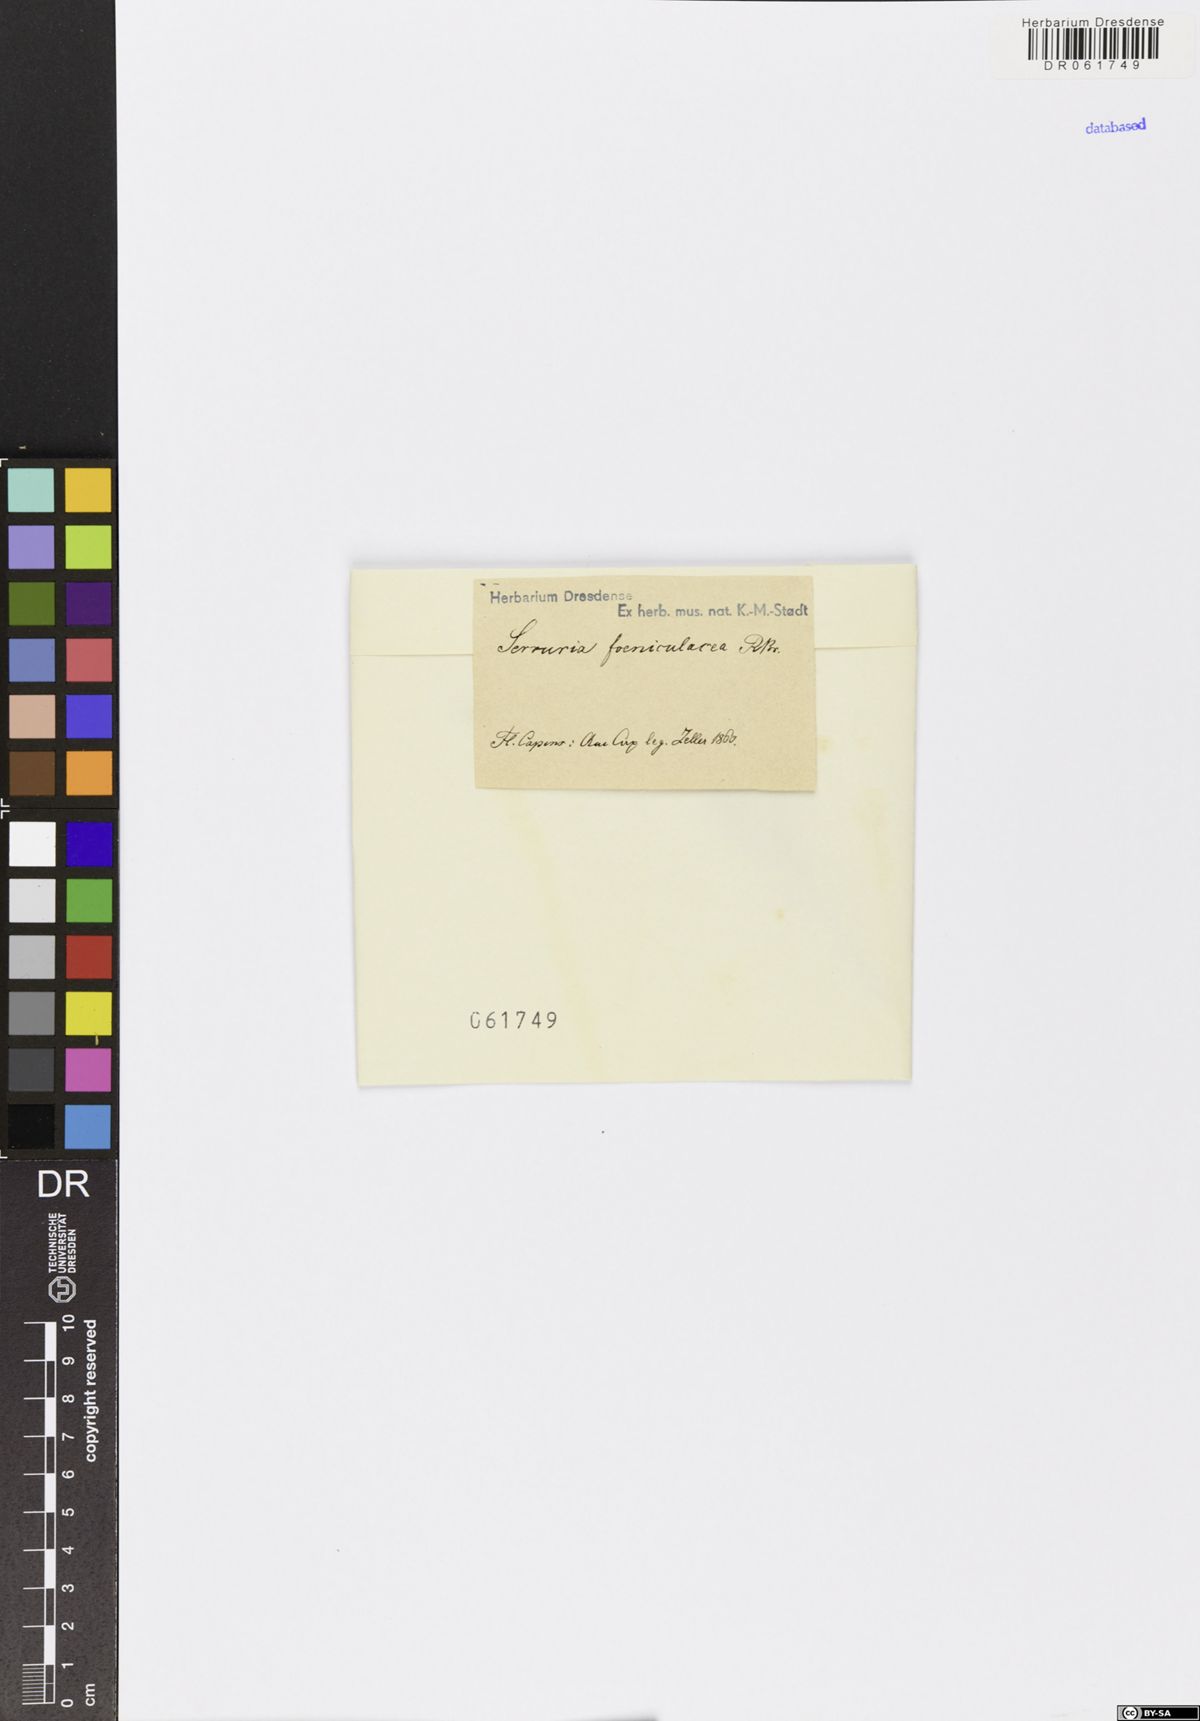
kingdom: Plantae
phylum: Tracheophyta
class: Magnoliopsida
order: Proteales
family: Proteaceae
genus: Serruria
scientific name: Serruria aemula
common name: Strawberry spiderhead
